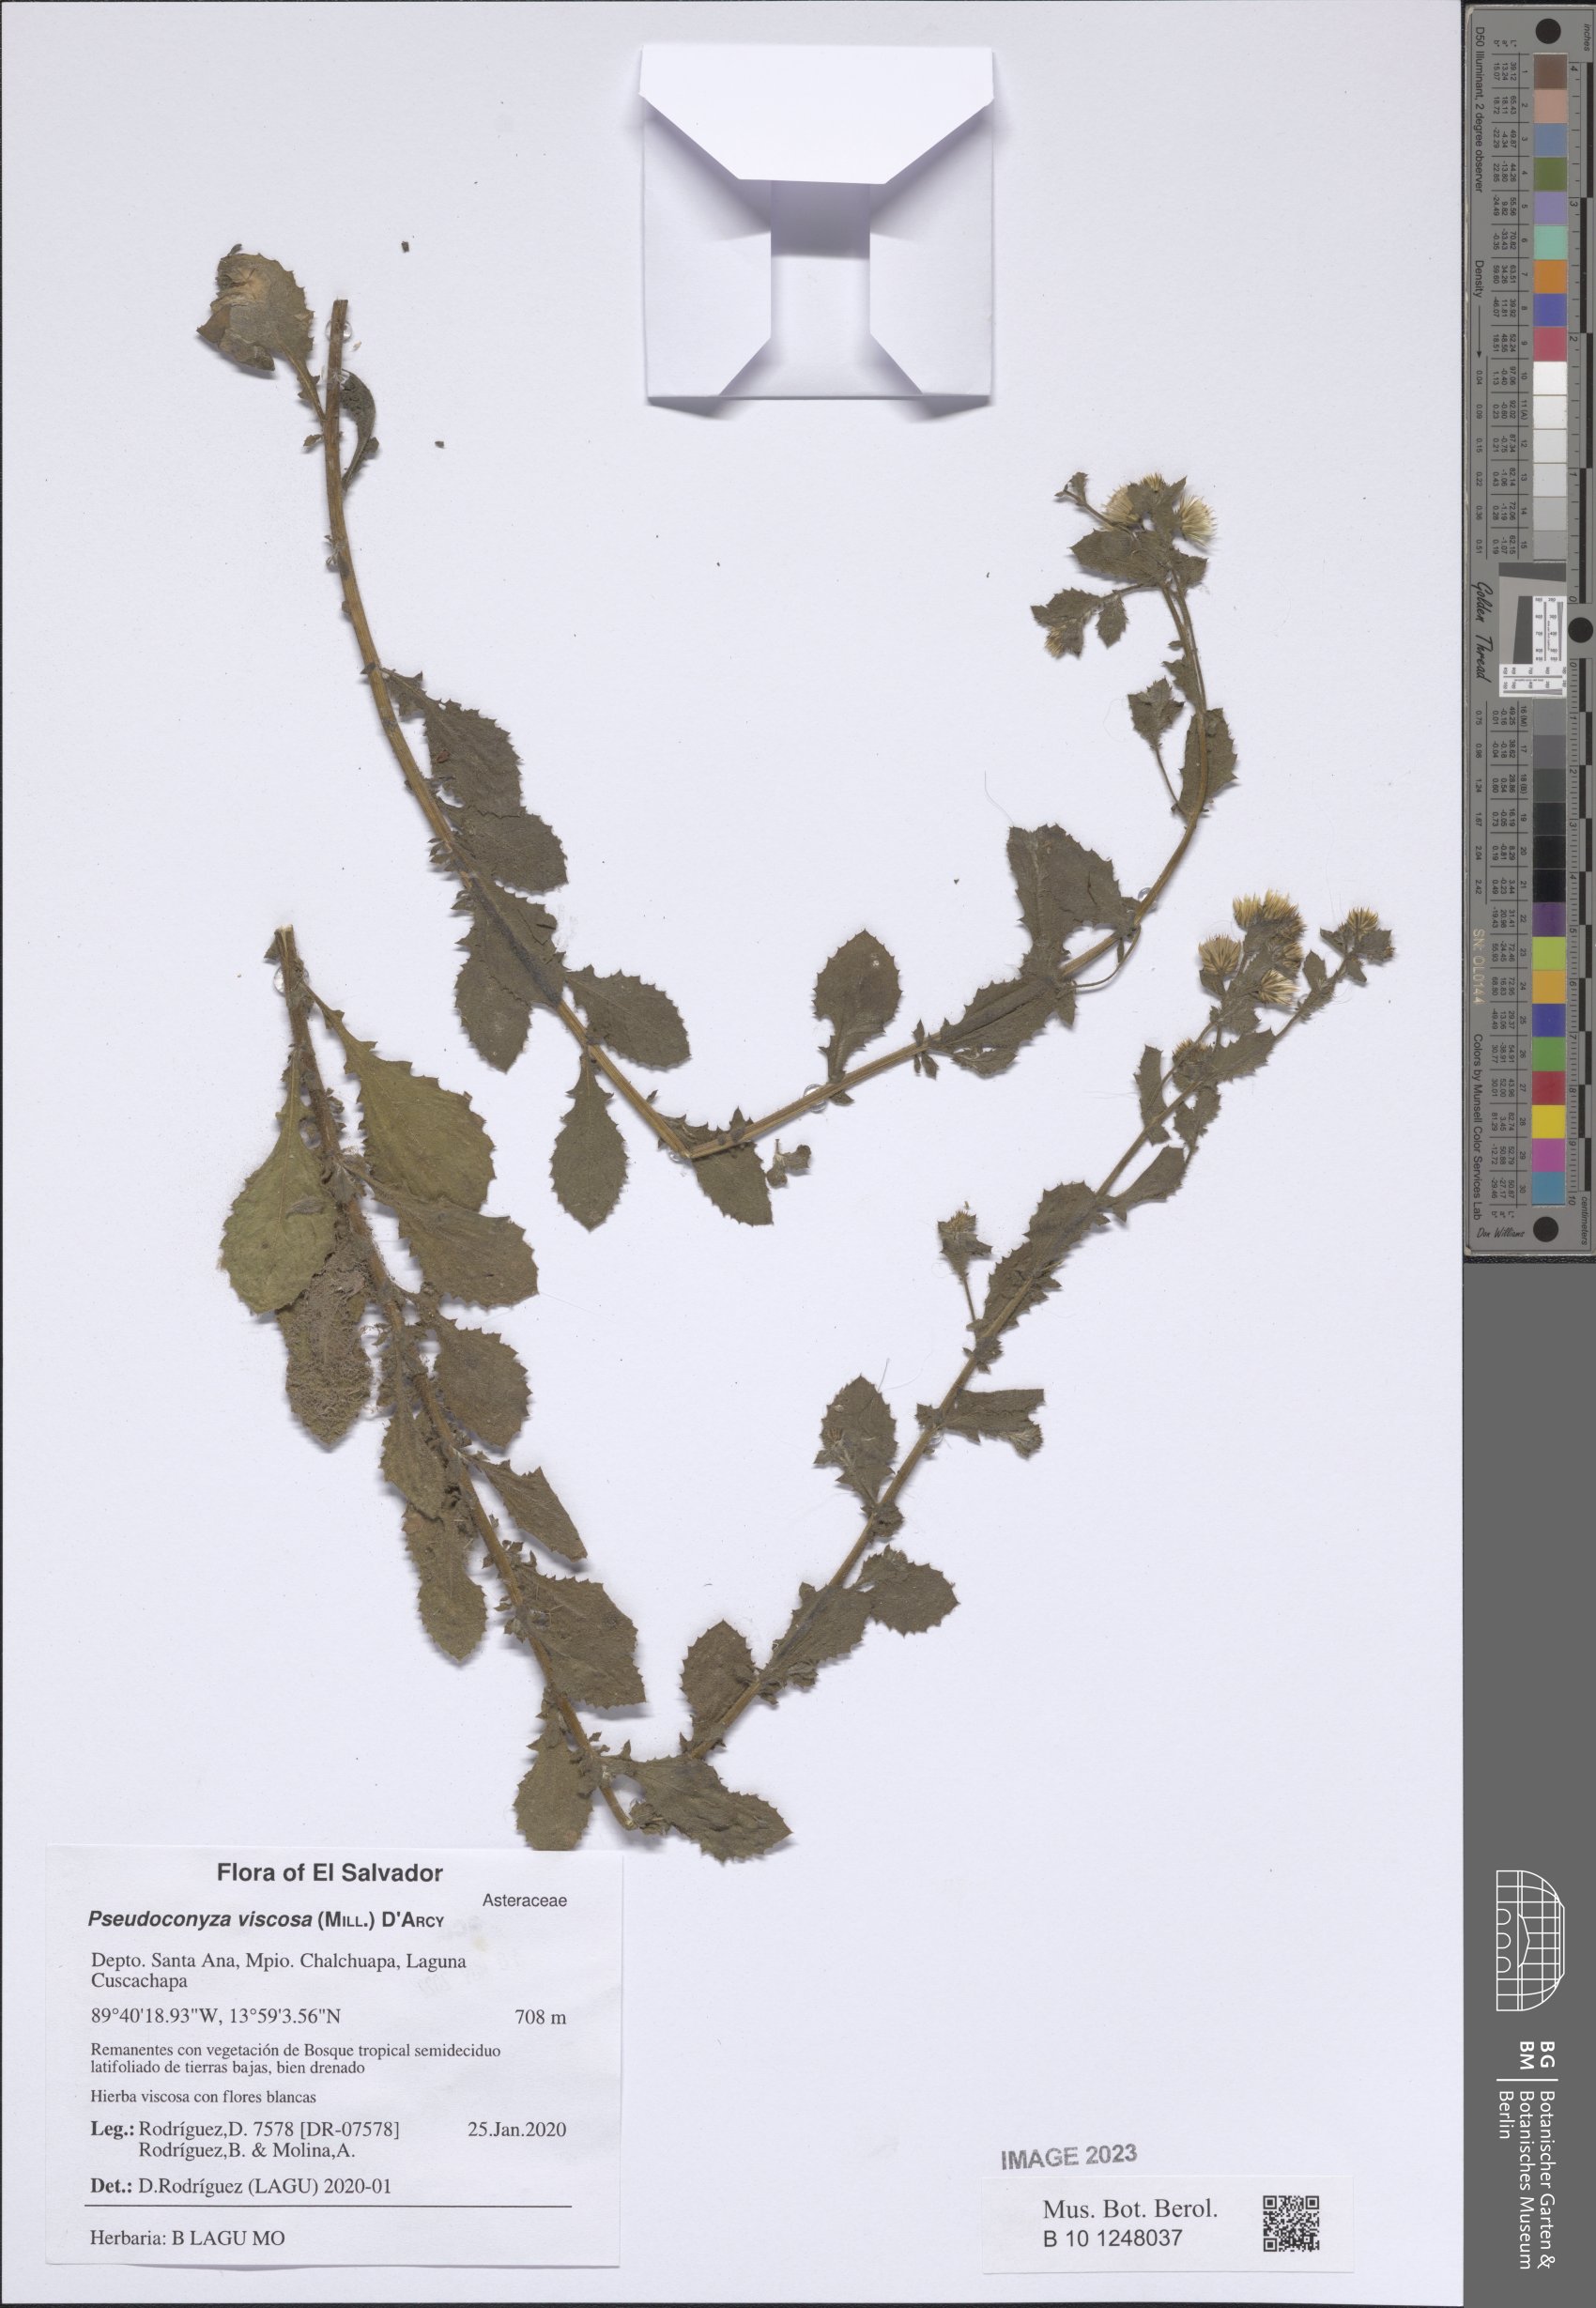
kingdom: Plantae
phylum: Tracheophyta
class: Magnoliopsida
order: Asterales
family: Asteraceae
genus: Pseudoconyza
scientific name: Pseudoconyza viscosa
